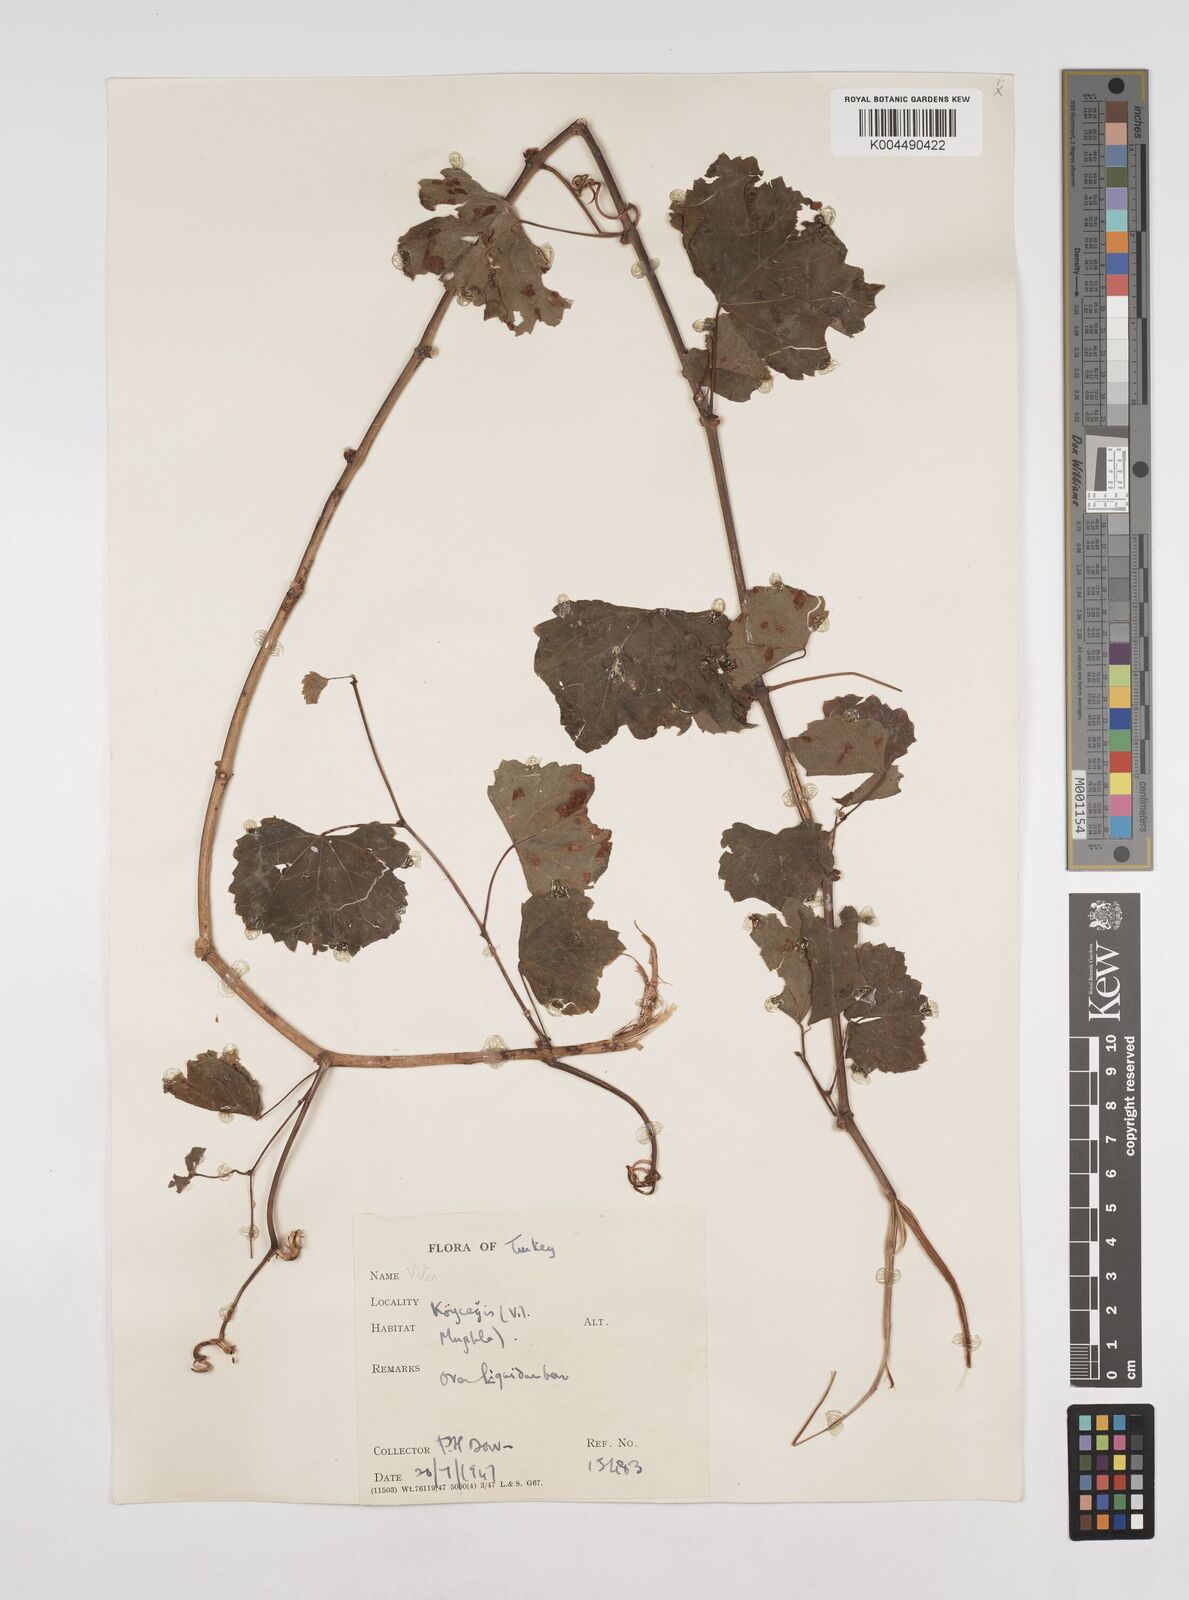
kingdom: Plantae
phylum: Tracheophyta
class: Magnoliopsida
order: Vitales
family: Vitaceae
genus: Vitis
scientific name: Vitis gmelinii
